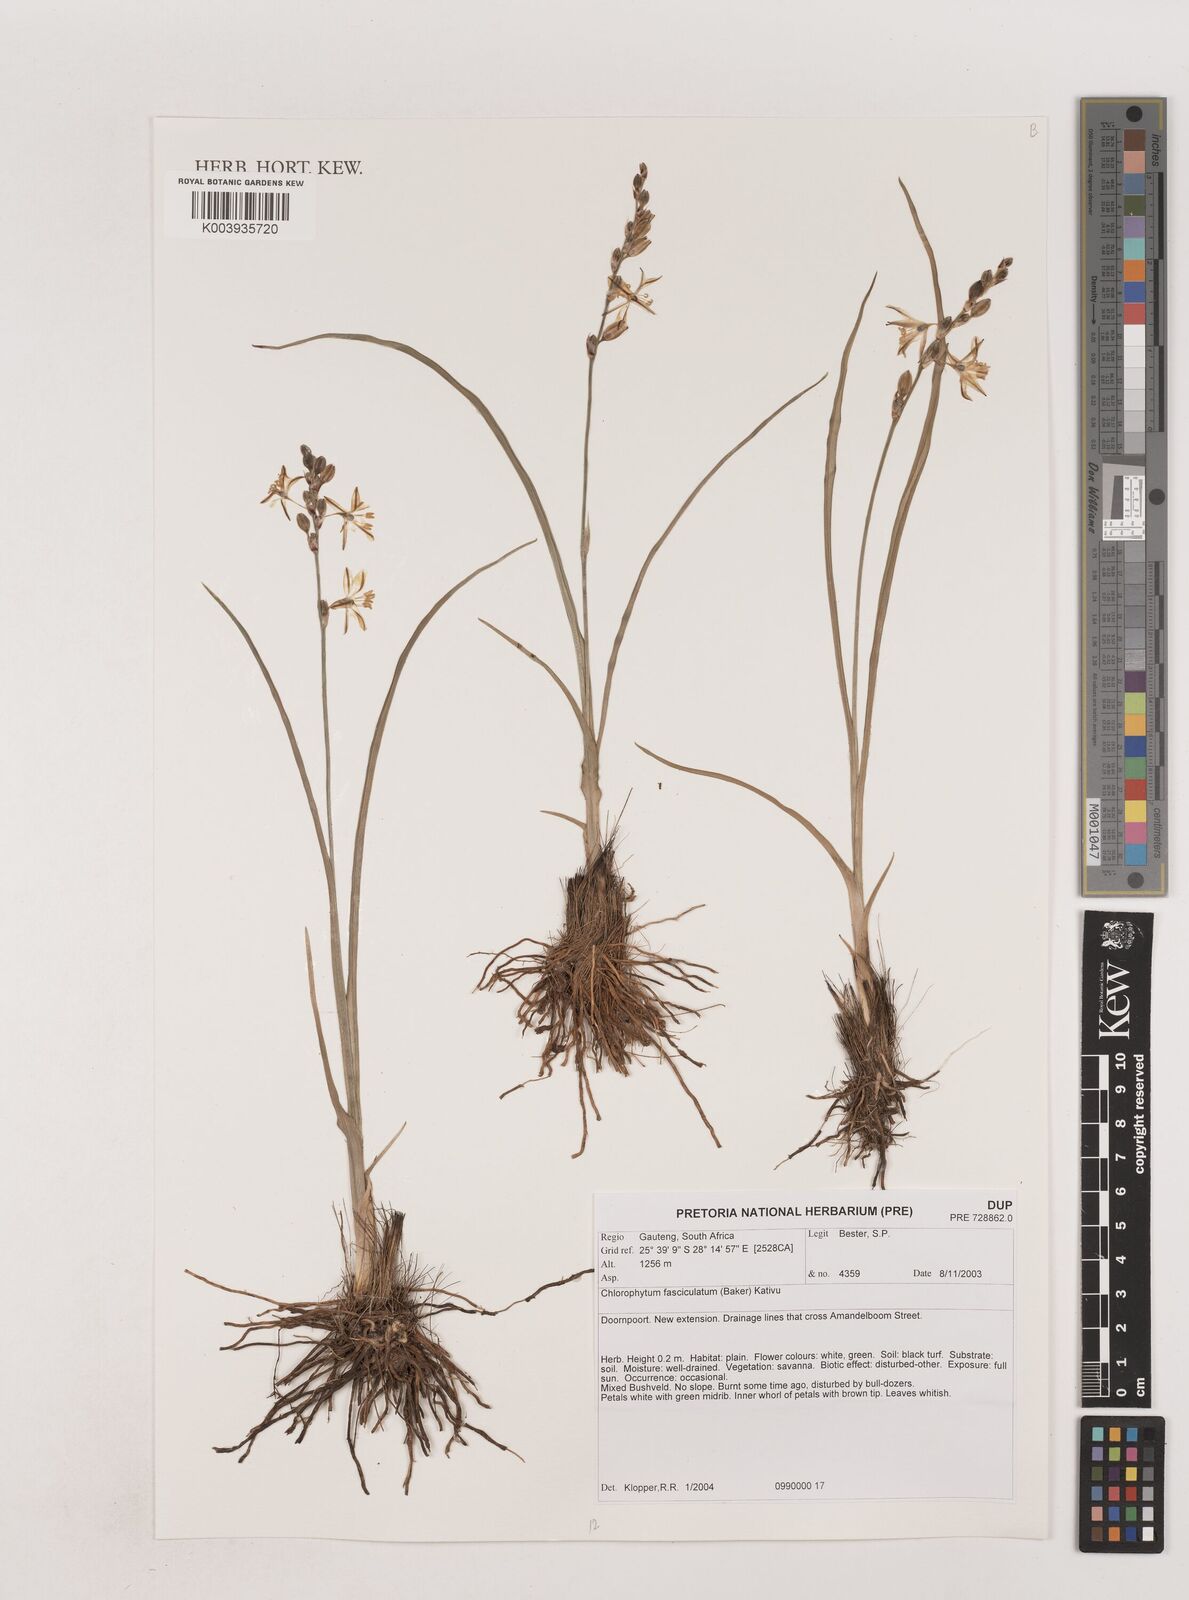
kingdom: Plantae
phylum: Tracheophyta
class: Liliopsida
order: Asparagales
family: Asparagaceae
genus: Chlorophytum
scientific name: Chlorophytum fasciculatum
